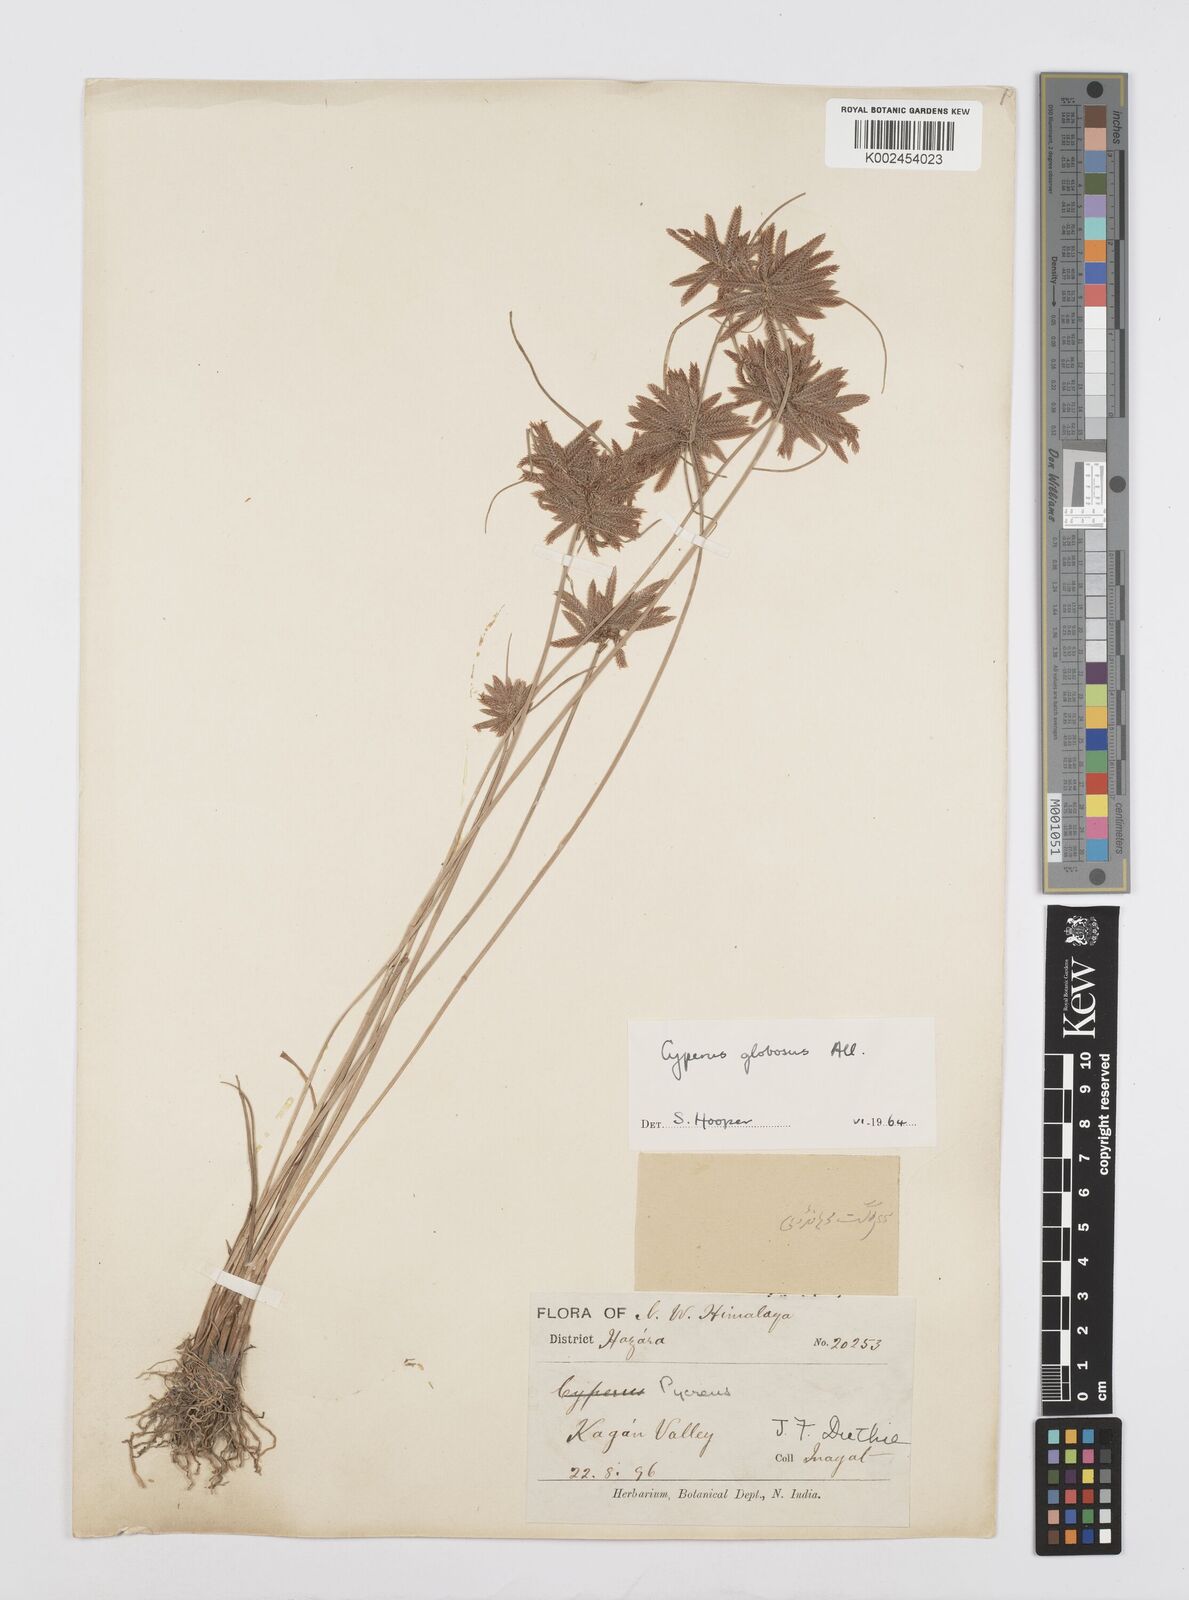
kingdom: Plantae
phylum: Tracheophyta
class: Liliopsida
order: Poales
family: Cyperaceae
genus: Cyperus
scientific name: Cyperus flavidus
